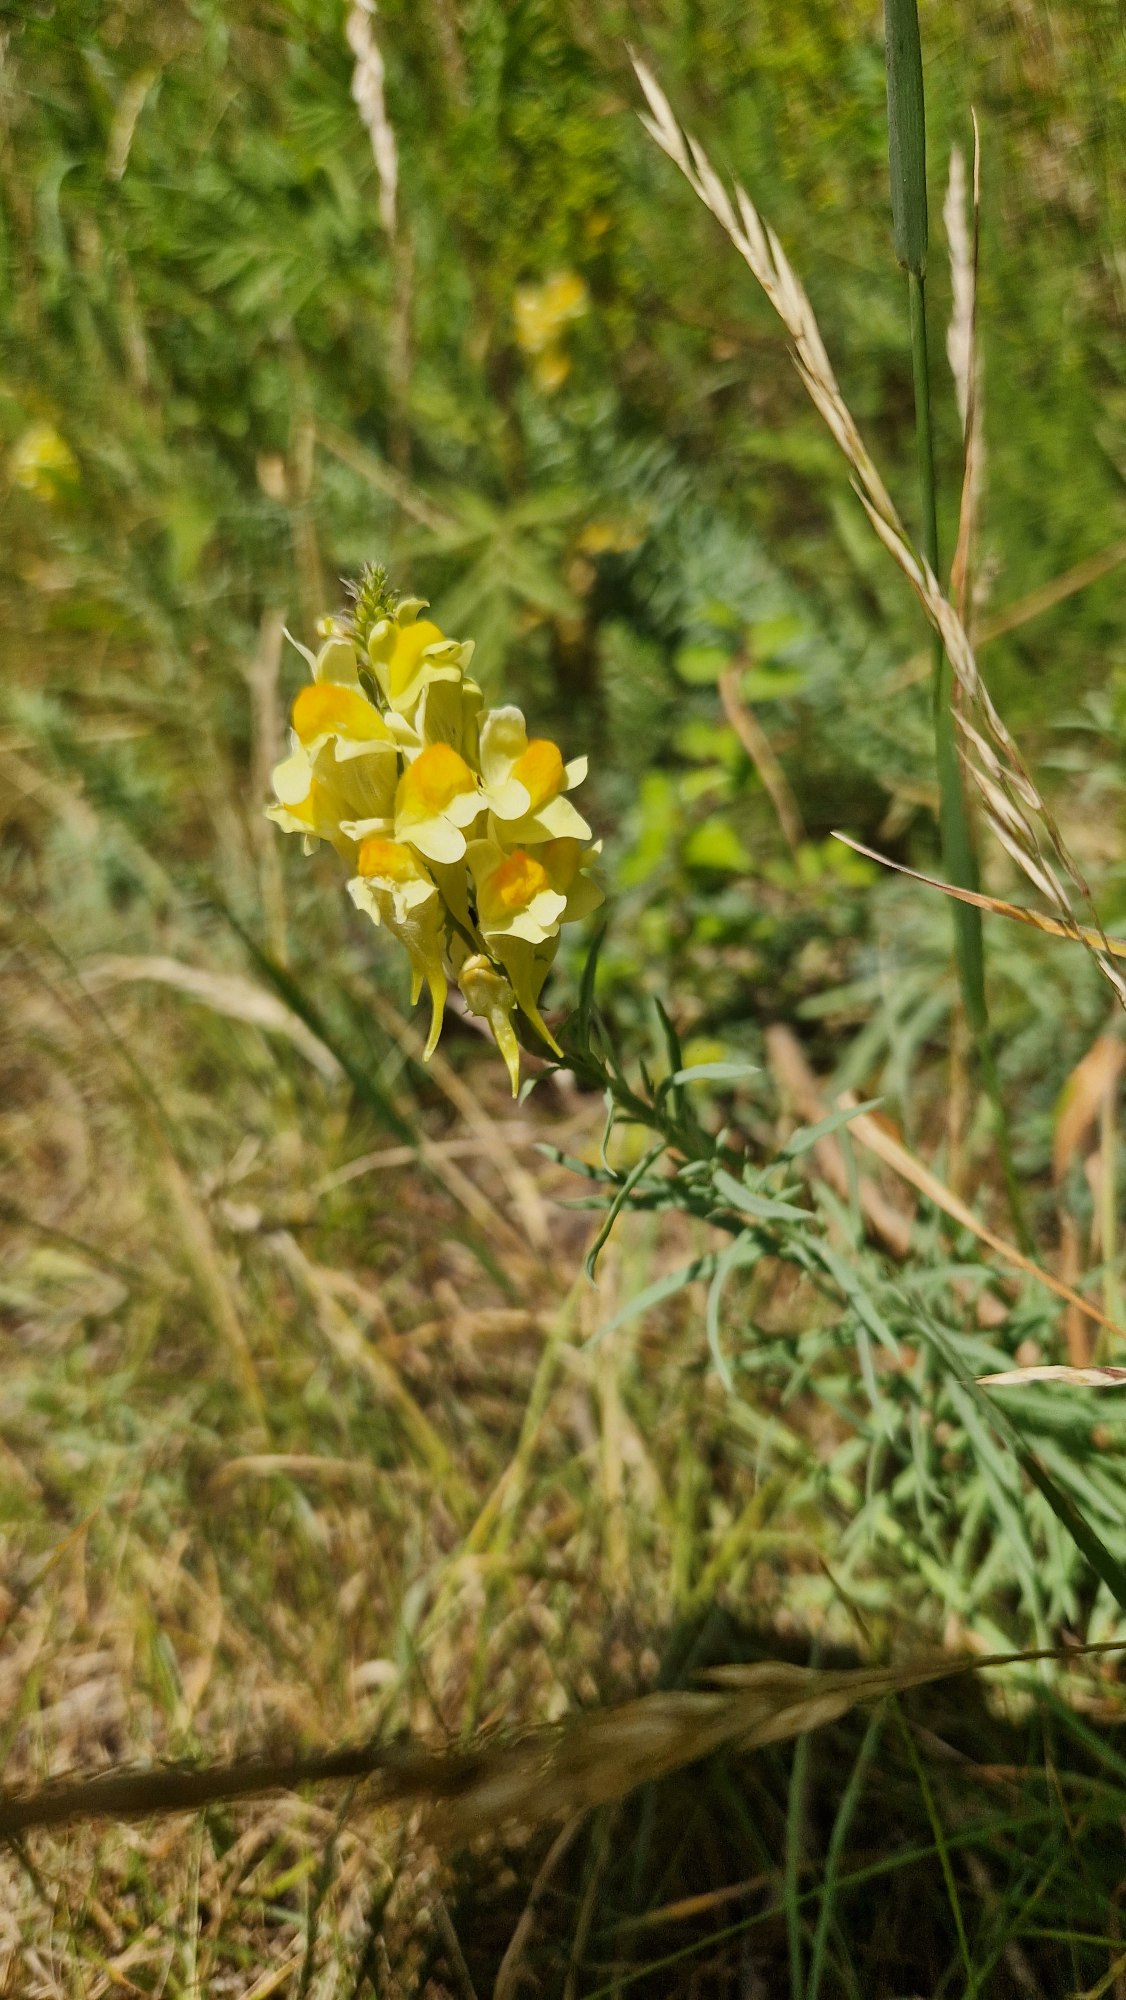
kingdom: Plantae
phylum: Tracheophyta
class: Magnoliopsida
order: Lamiales
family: Plantaginaceae
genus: Linaria
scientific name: Linaria vulgaris
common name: Almindelig torskemund
